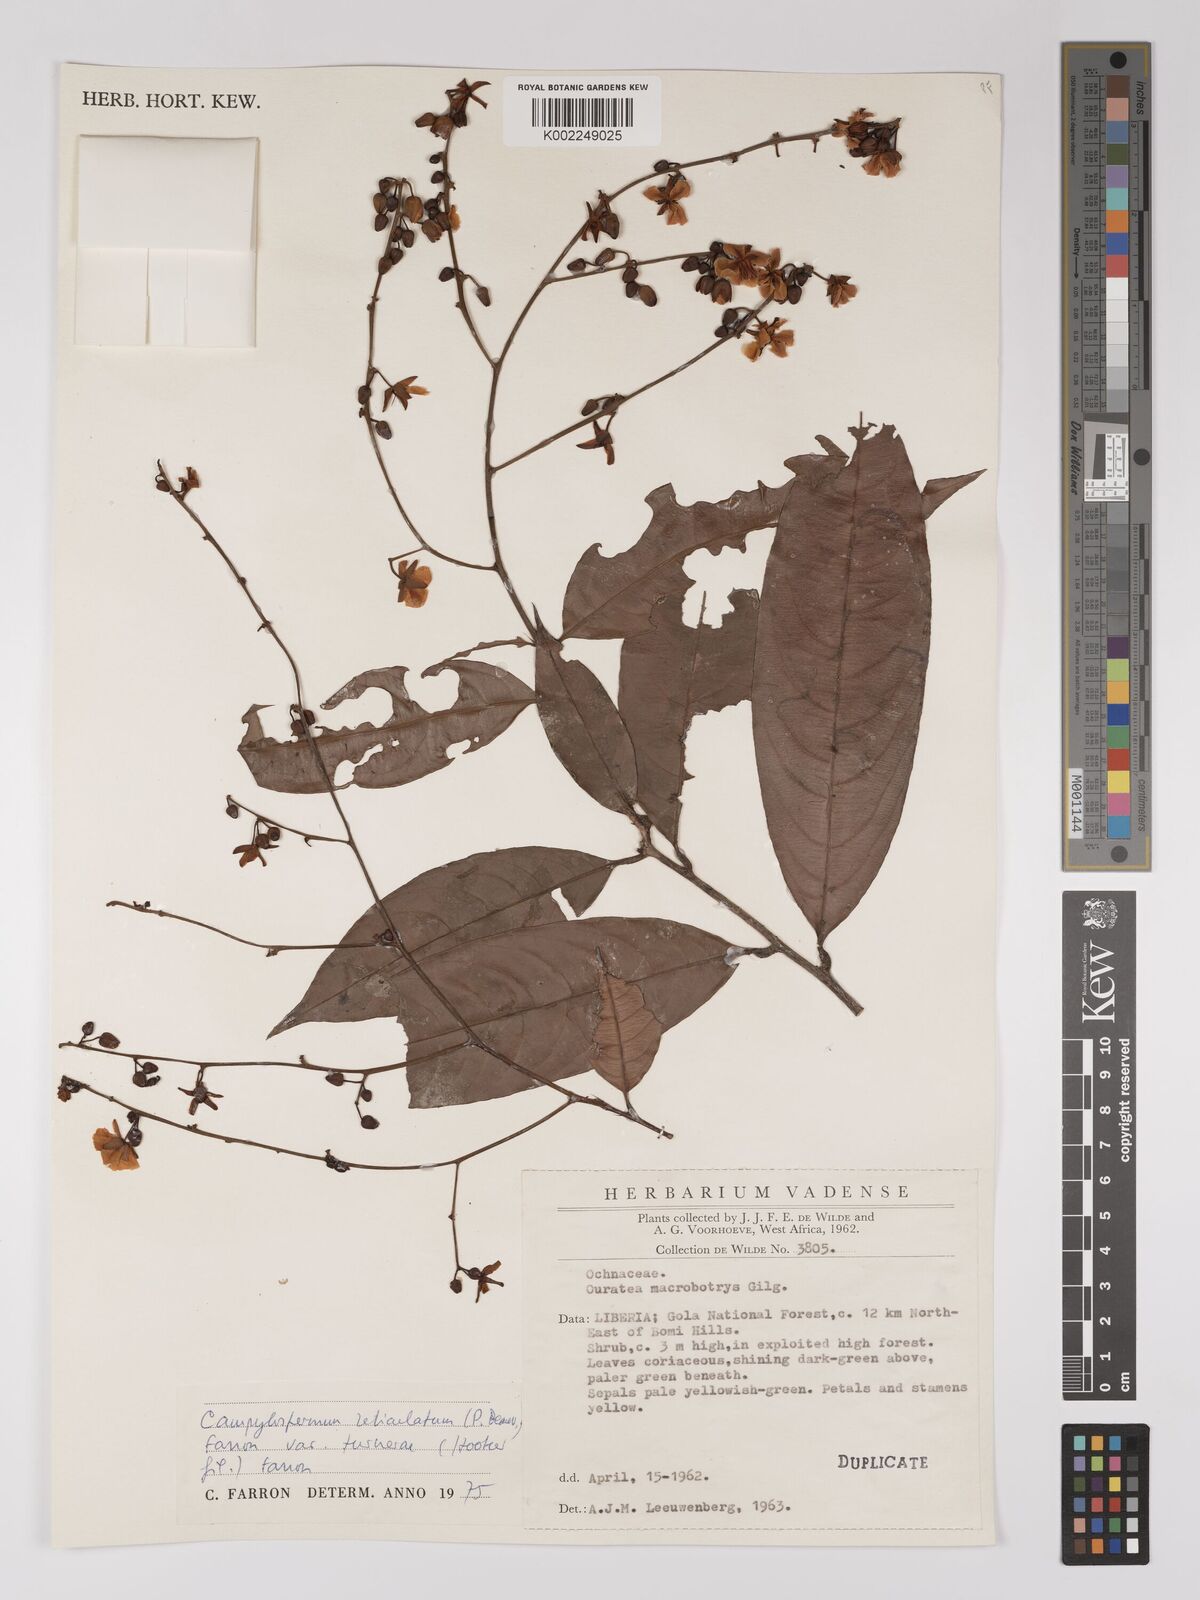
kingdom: Plantae
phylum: Tracheophyta
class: Magnoliopsida
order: Malpighiales
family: Ochnaceae
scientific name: Ochnaceae
